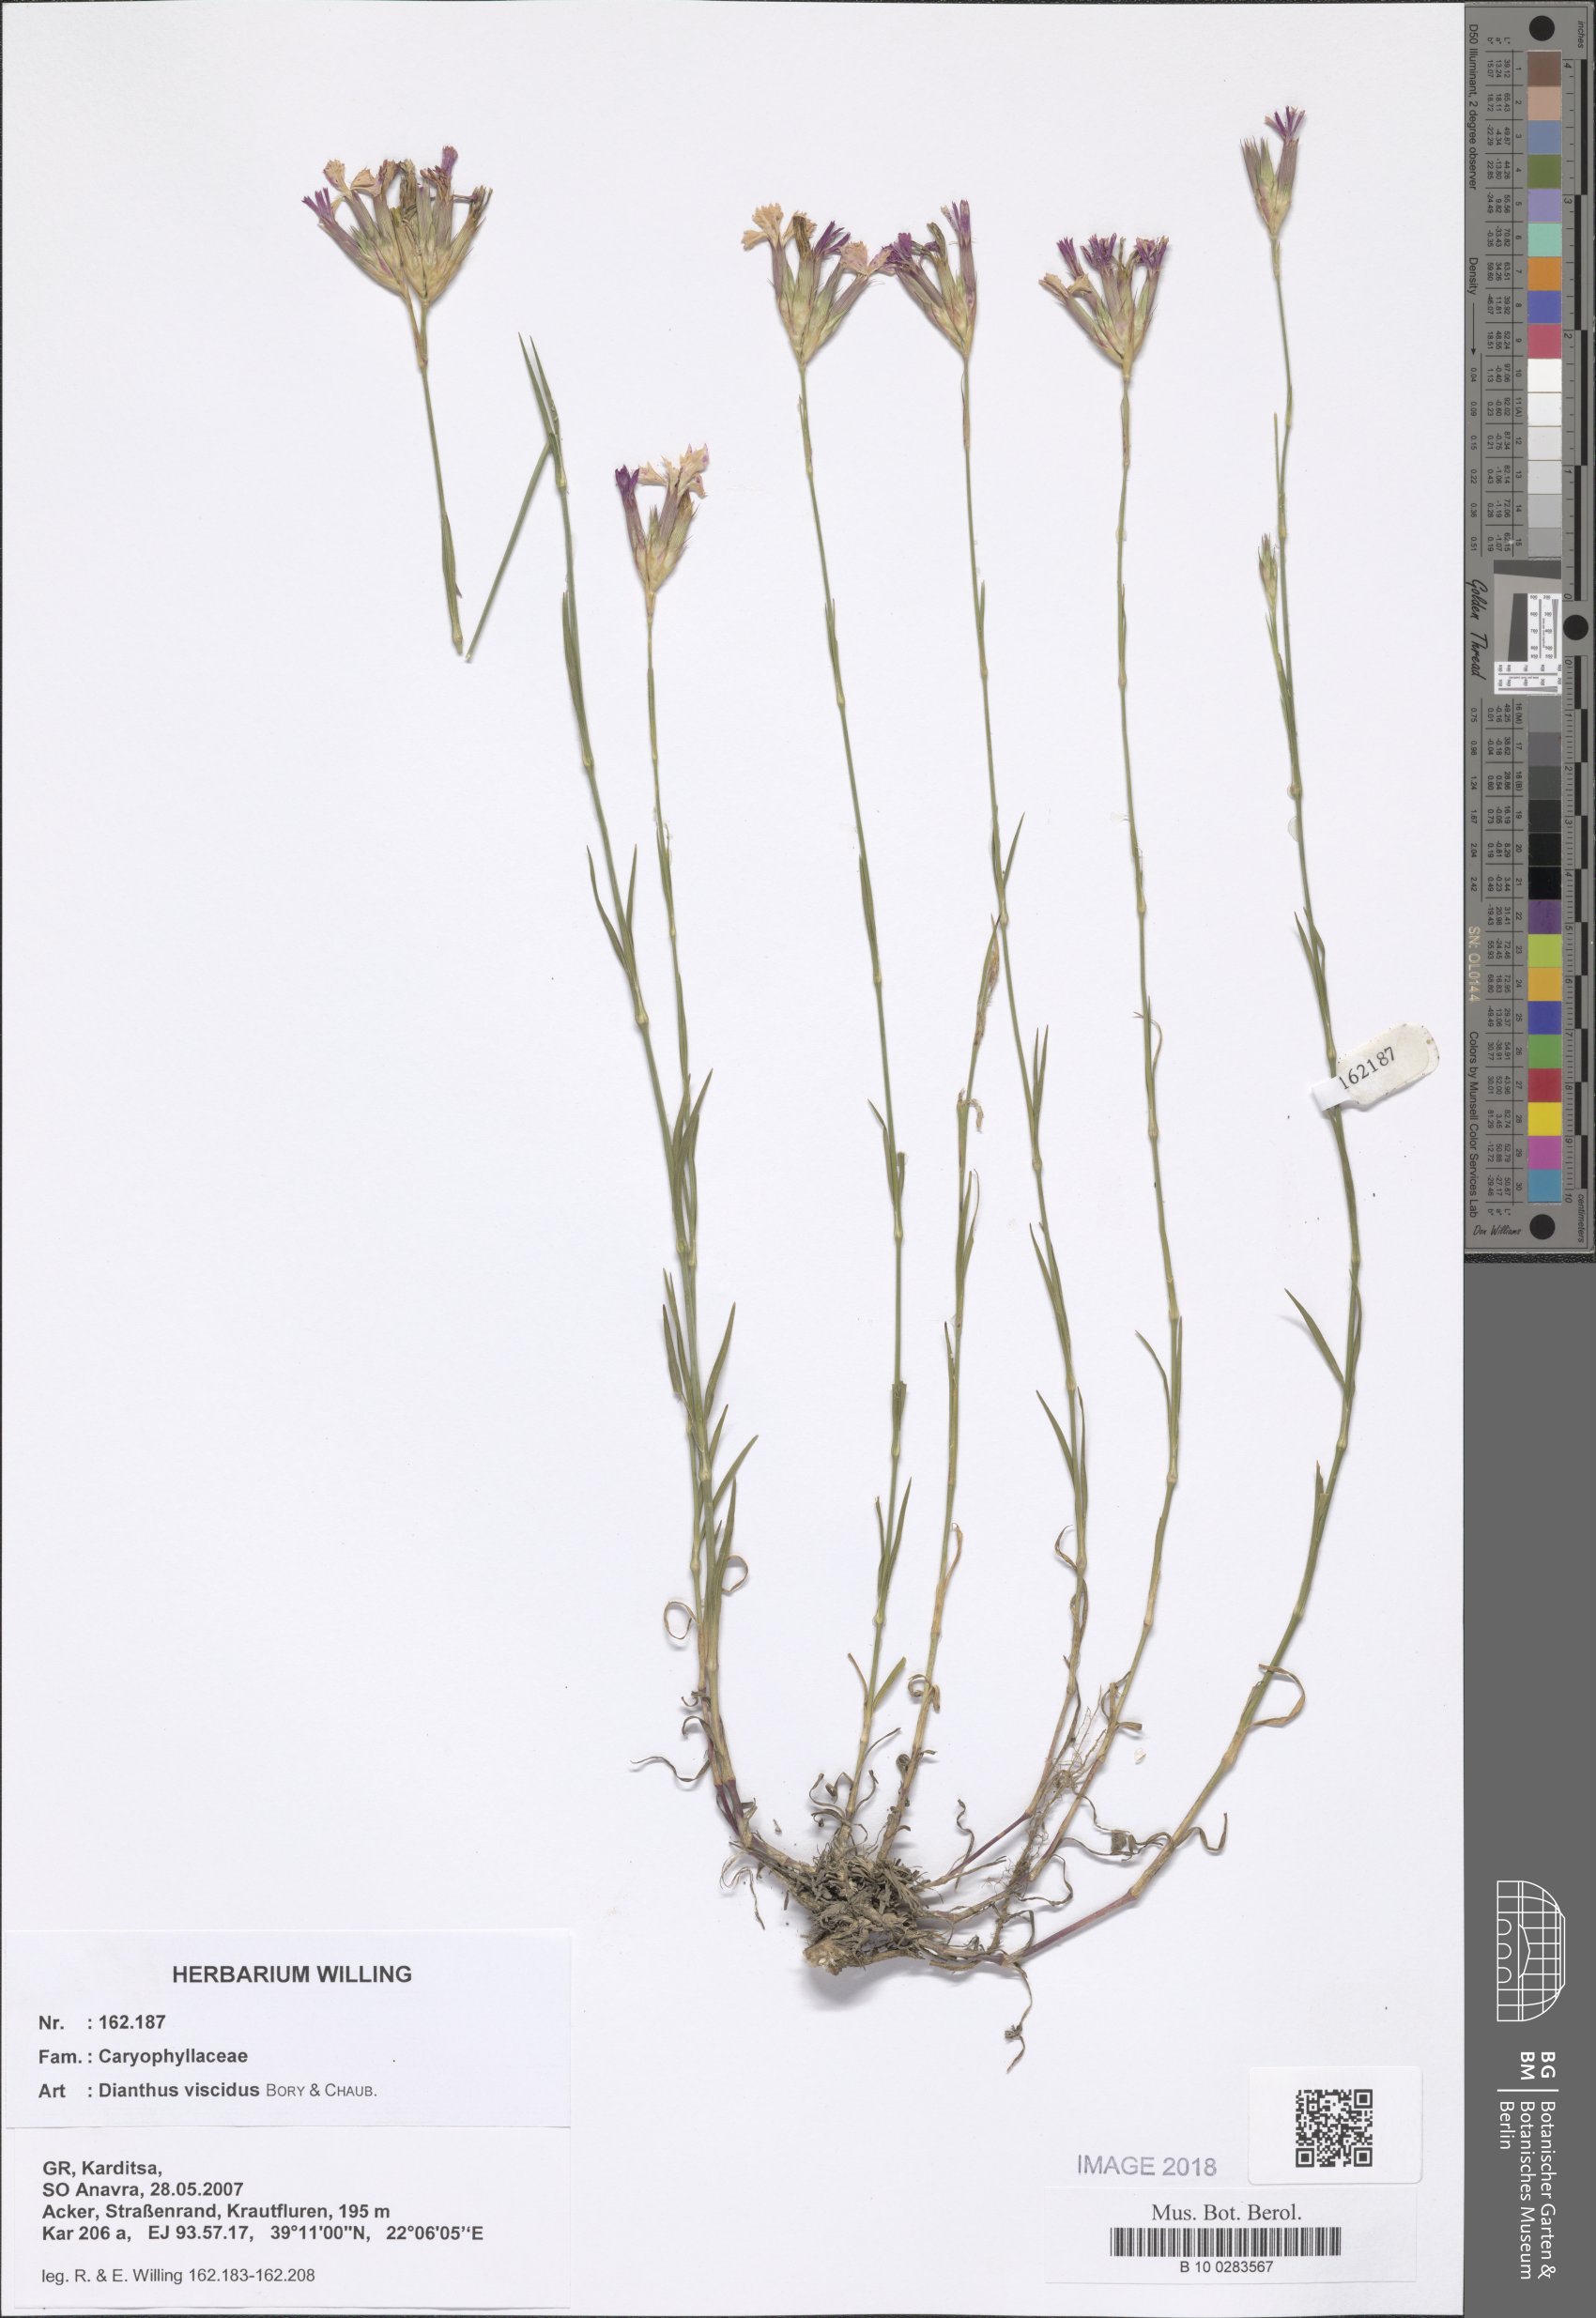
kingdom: Plantae
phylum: Tracheophyta
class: Magnoliopsida
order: Caryophyllales
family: Caryophyllaceae
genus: Dianthus
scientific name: Dianthus viscidus
